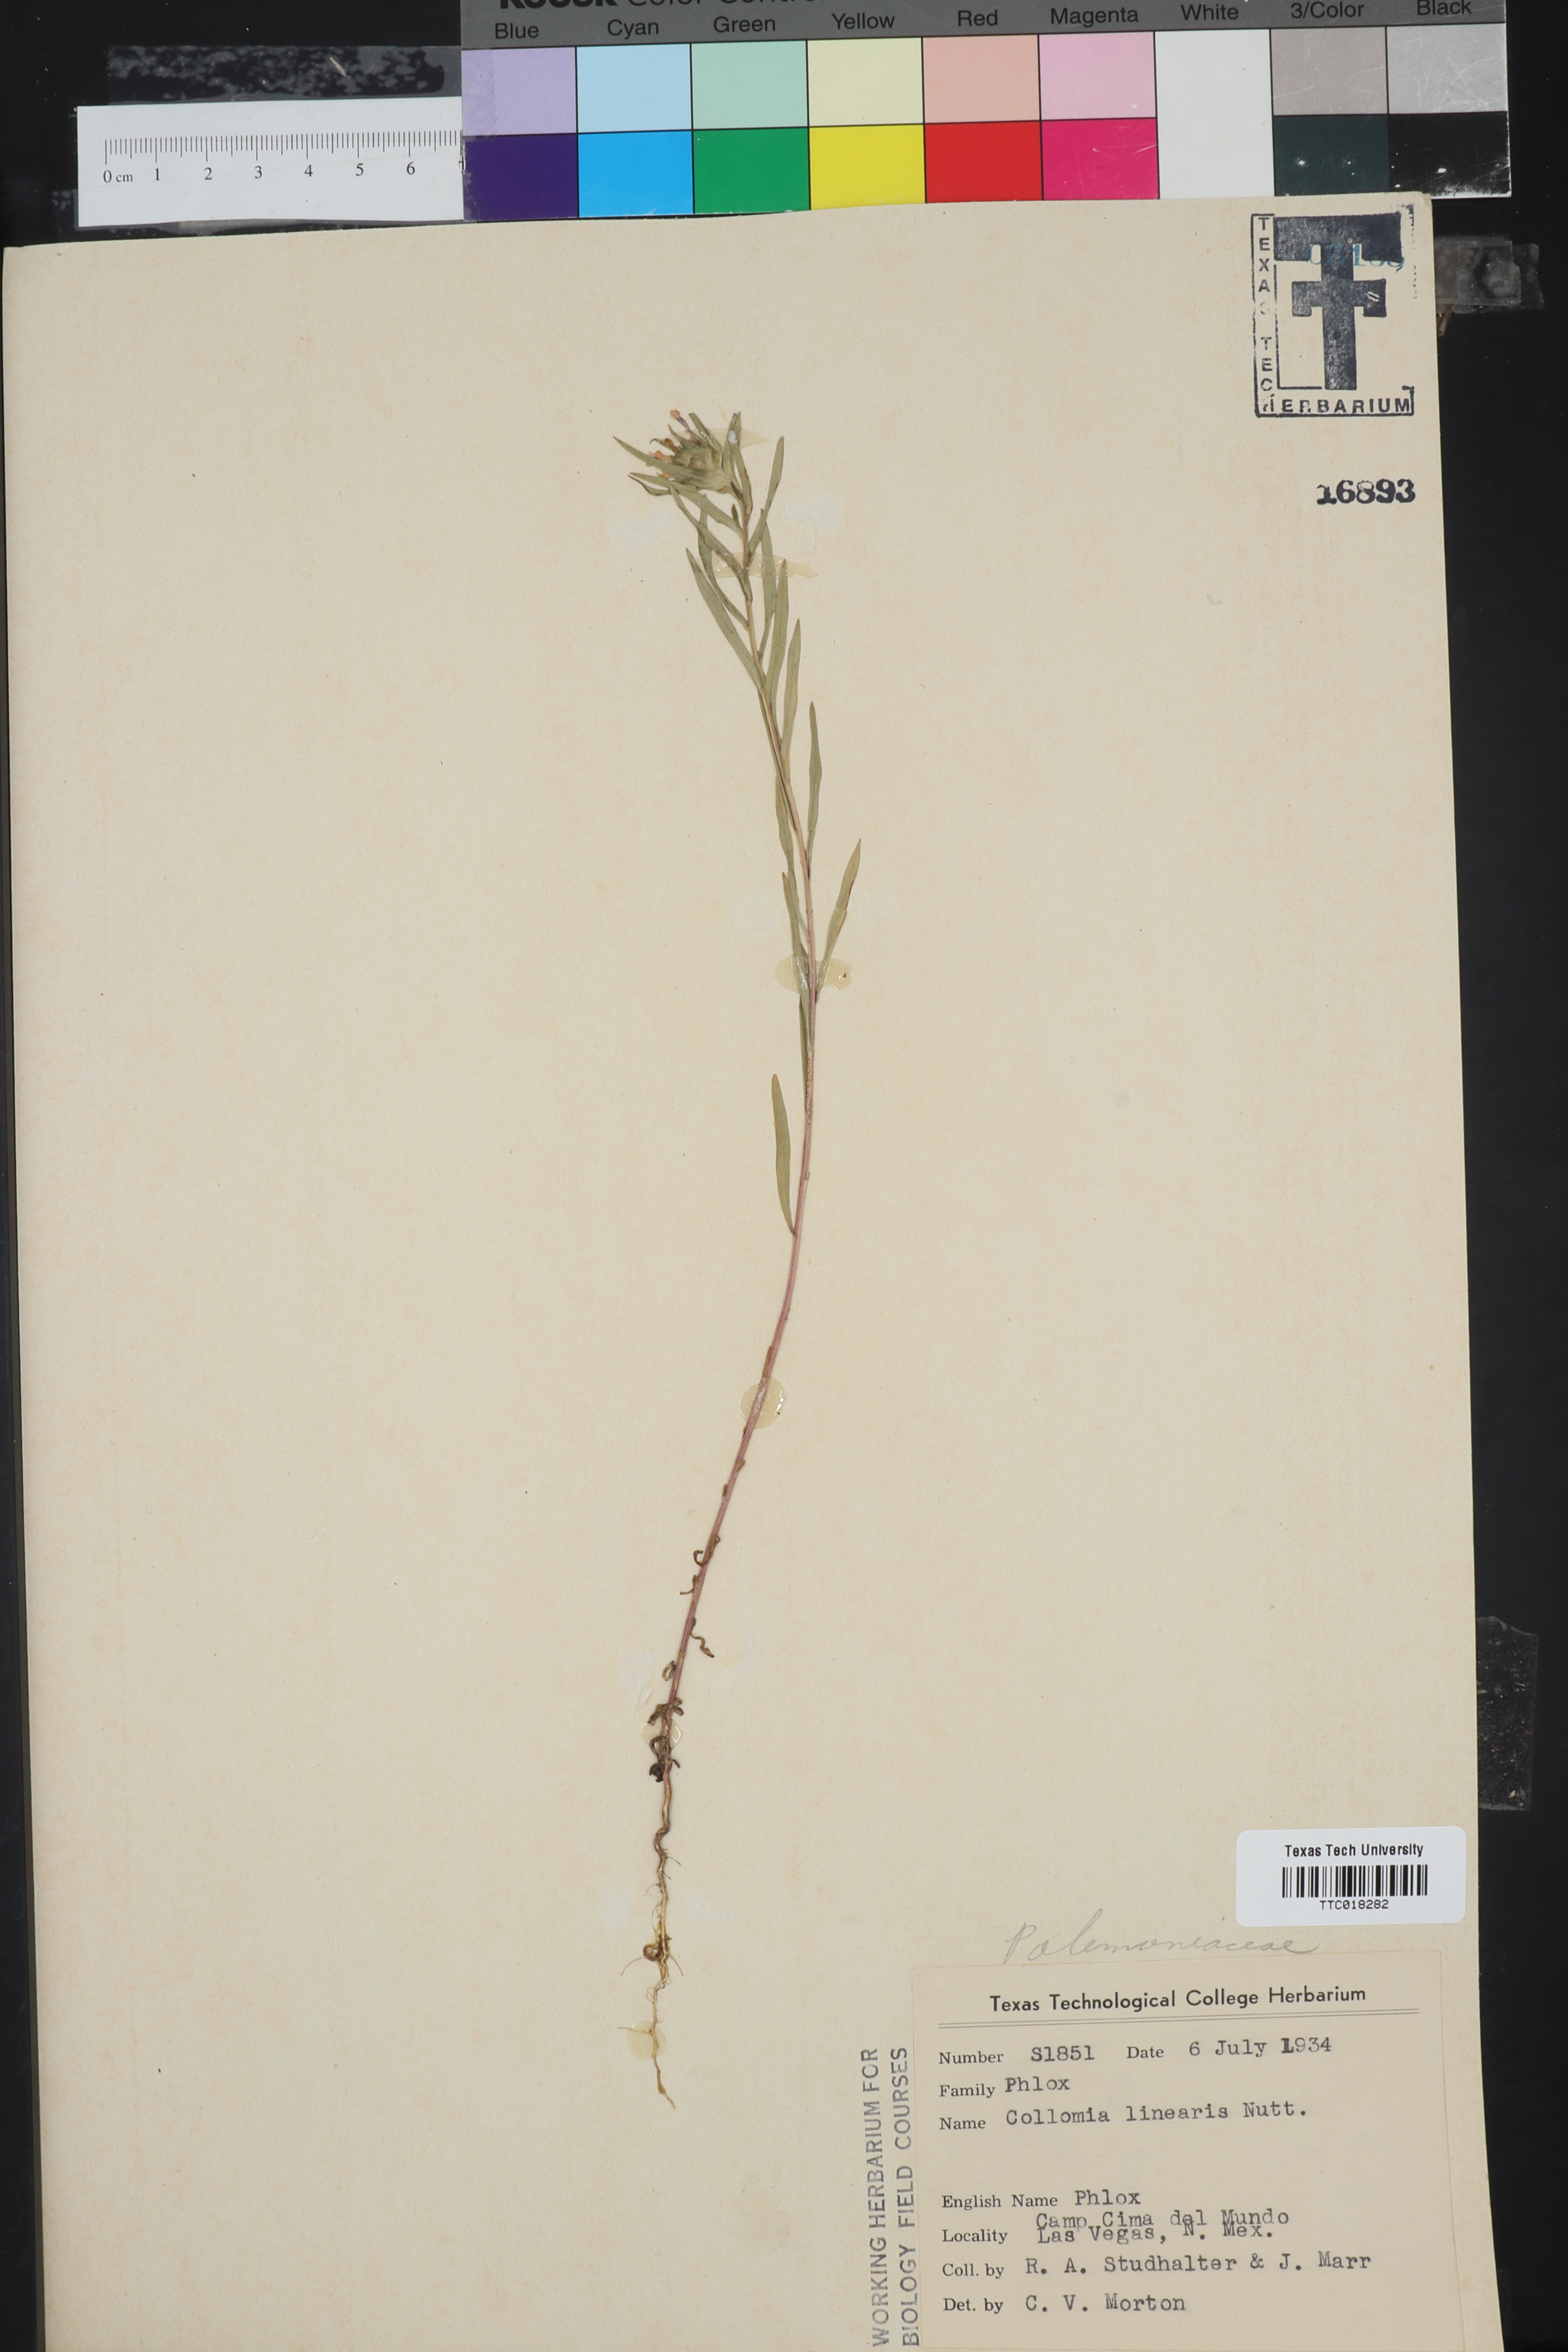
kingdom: Plantae
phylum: Tracheophyta
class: Magnoliopsida
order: Ericales
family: Polemoniaceae
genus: Collomia
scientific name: Collomia linearis
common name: Tiny trumpet
